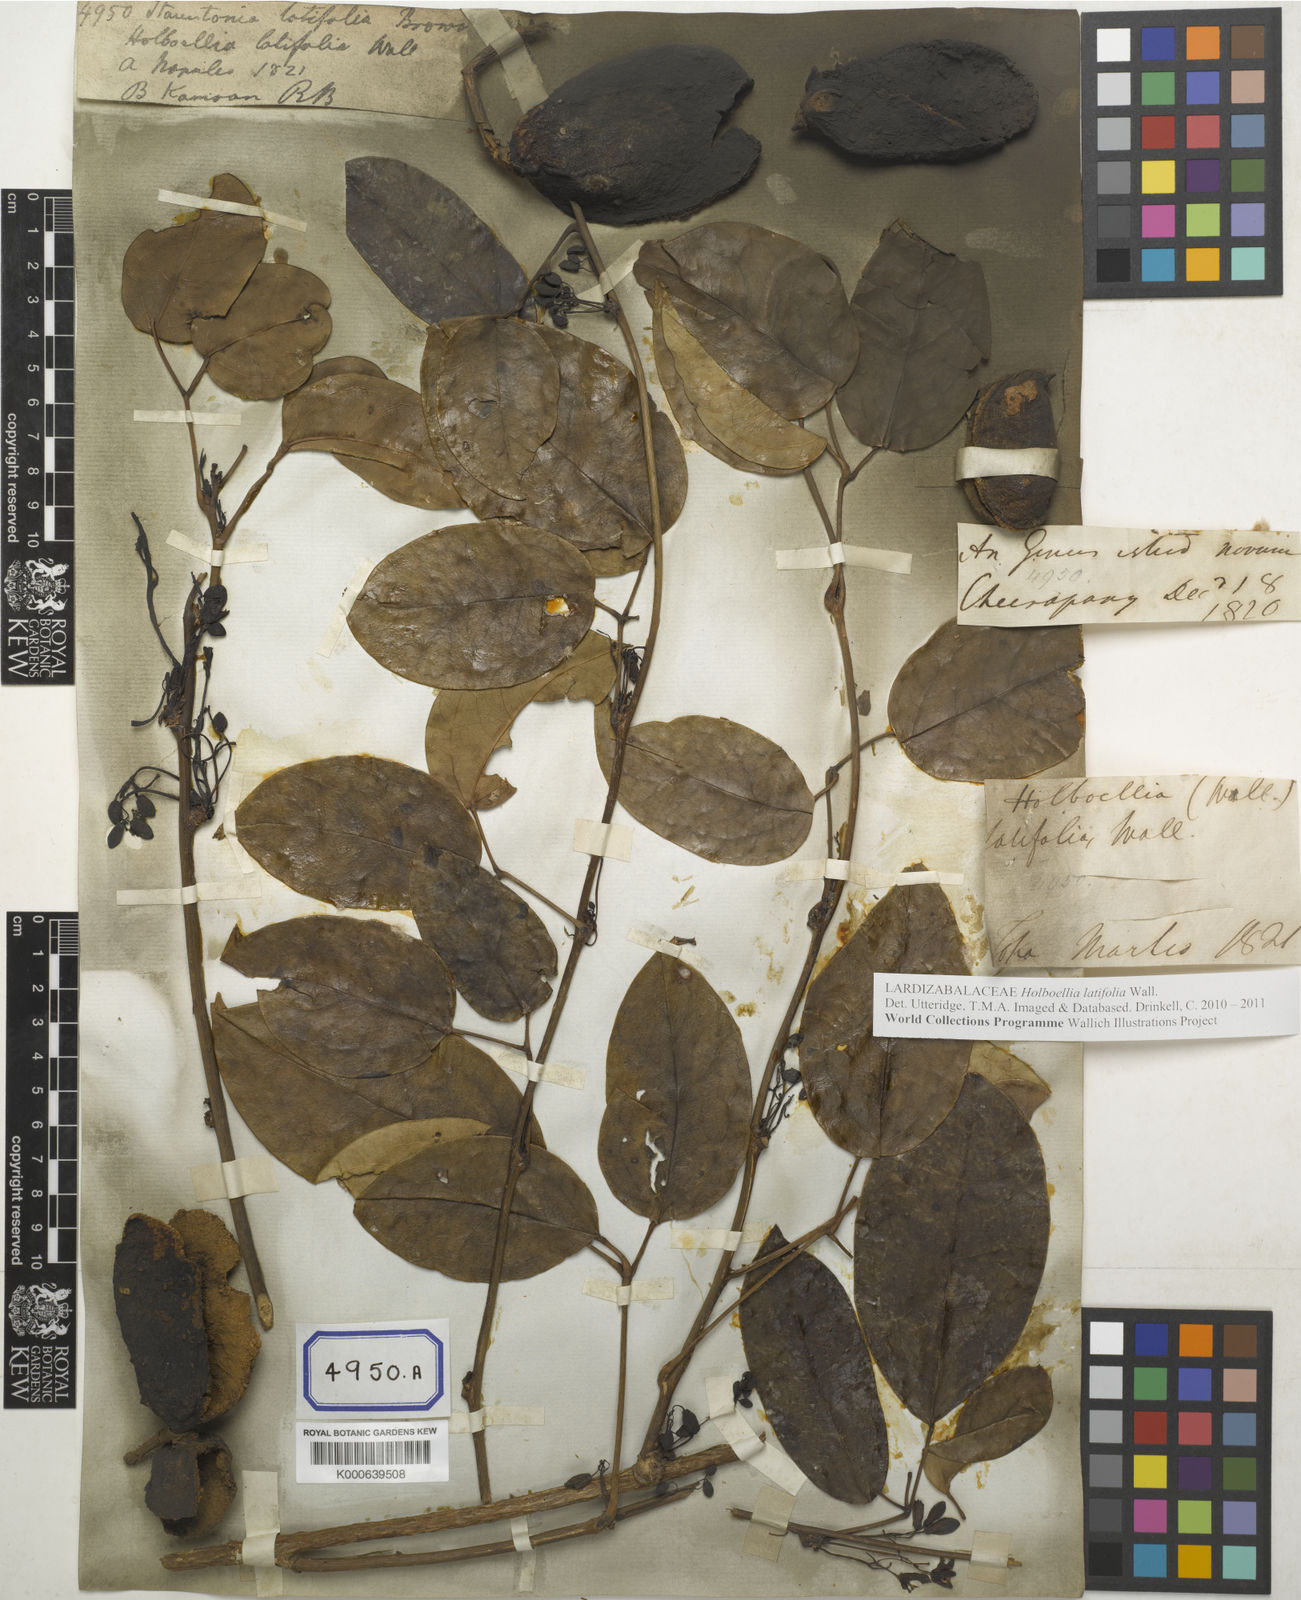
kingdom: Plantae
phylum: Tracheophyta
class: Magnoliopsida
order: Ranunculales
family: Lardizabalaceae
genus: Stauntonia
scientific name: Stauntonia latifolia
